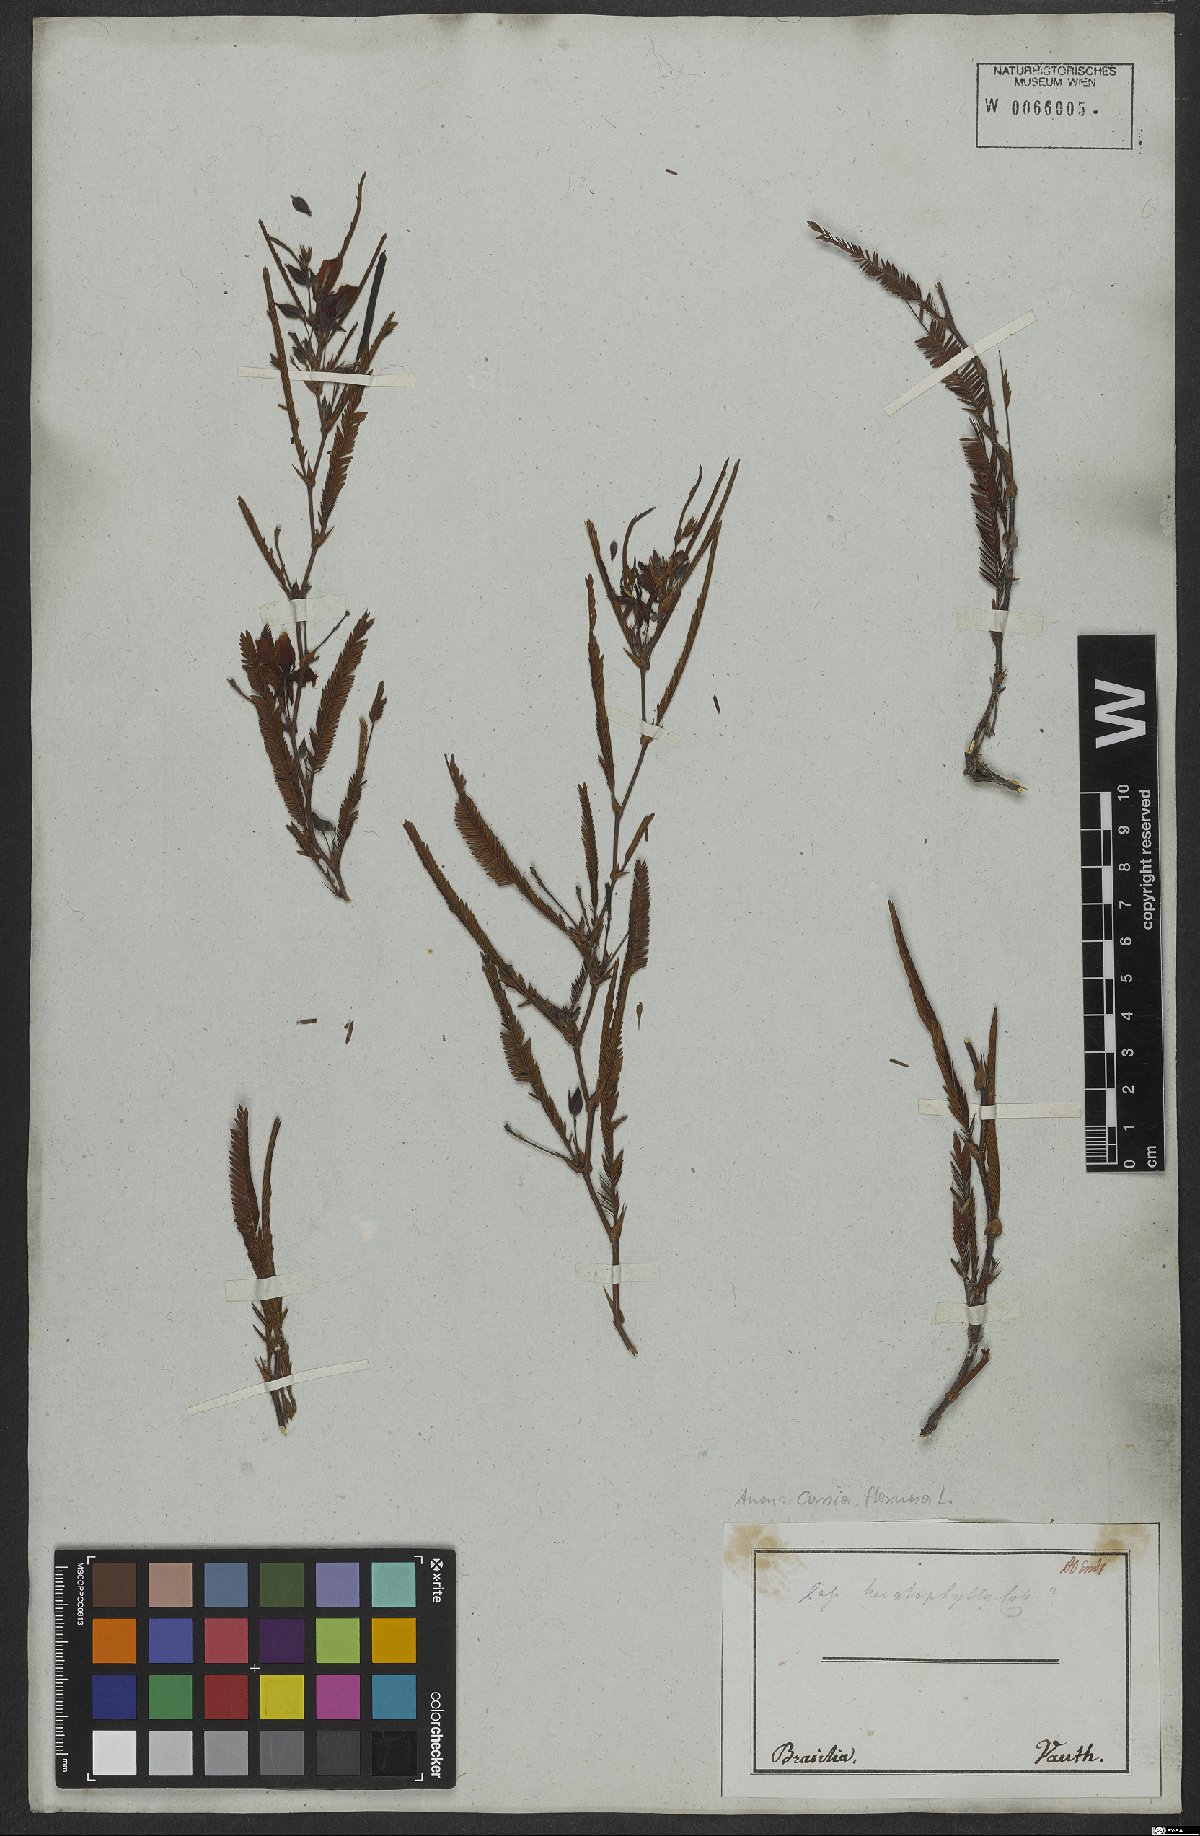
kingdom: Plantae
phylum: Tracheophyta
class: Magnoliopsida
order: Fabales
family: Fabaceae
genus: Chamaecrista
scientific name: Chamaecrista flexuosa
